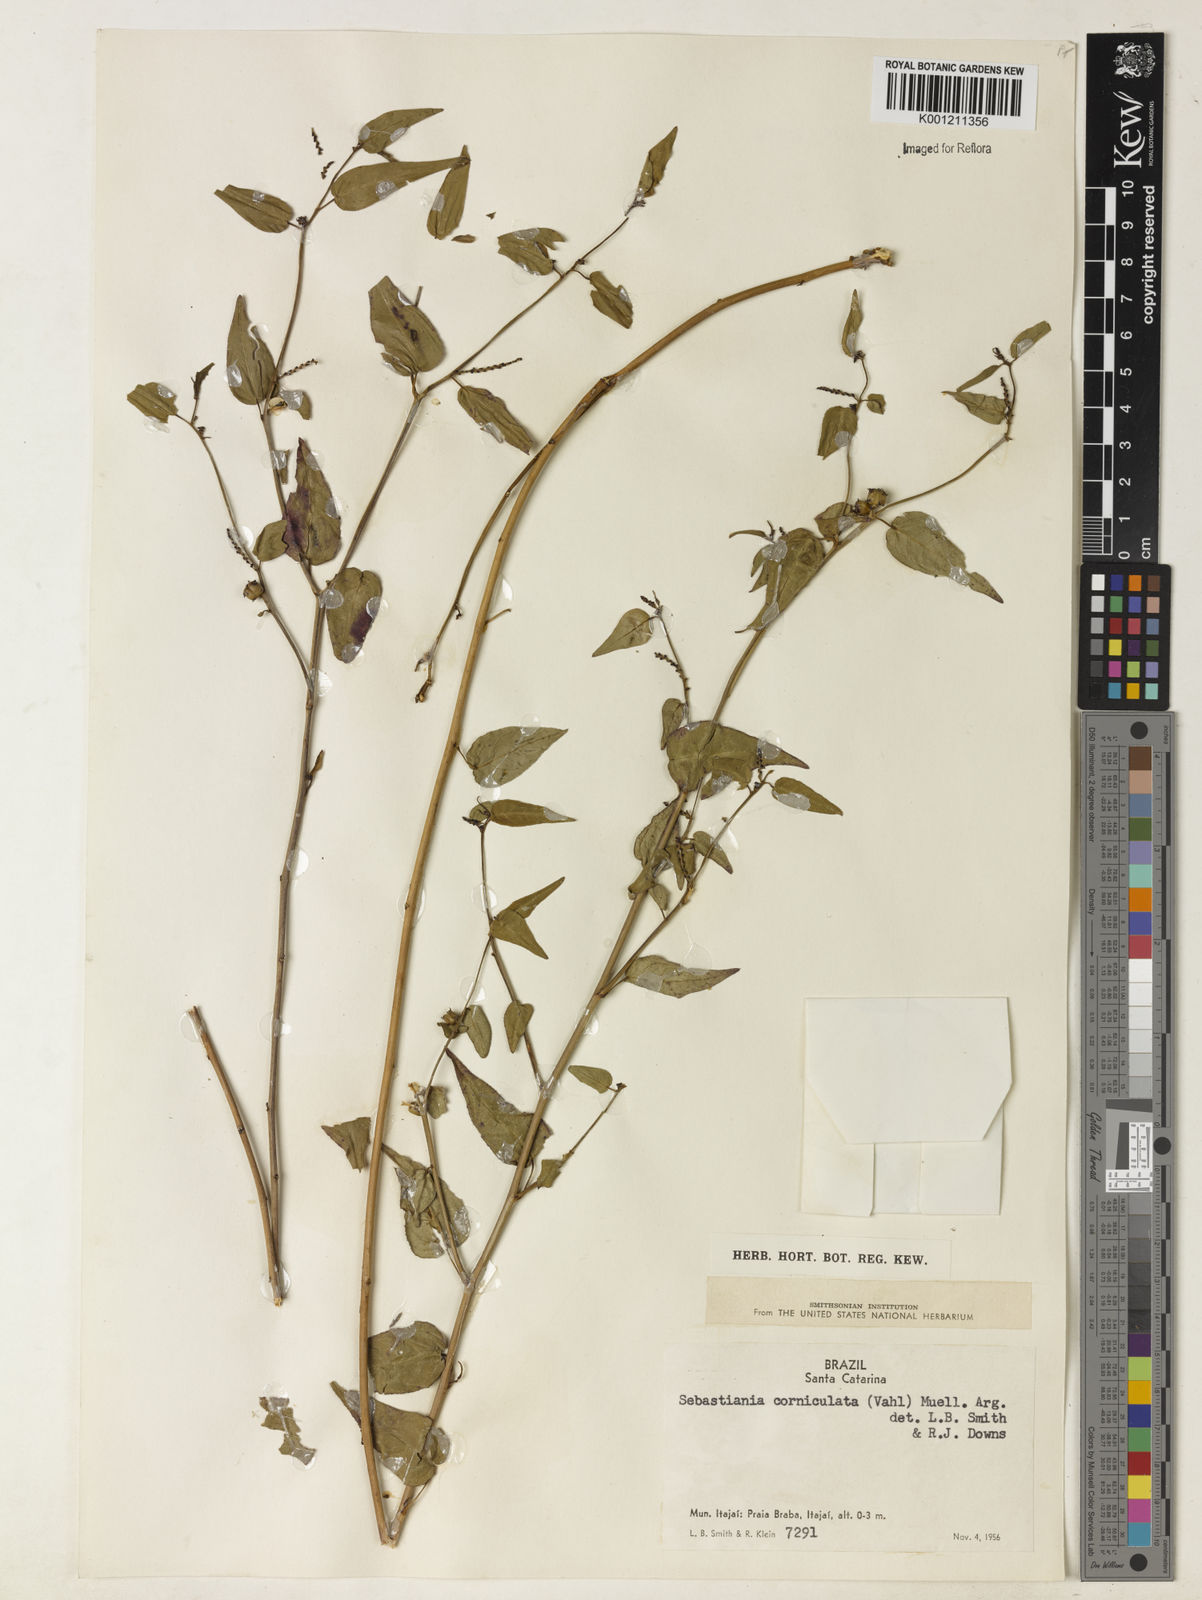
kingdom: Plantae
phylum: Tracheophyta
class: Magnoliopsida
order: Malpighiales
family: Euphorbiaceae
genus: Microstachys
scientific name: Microstachys corniculata
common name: Hato tejas
